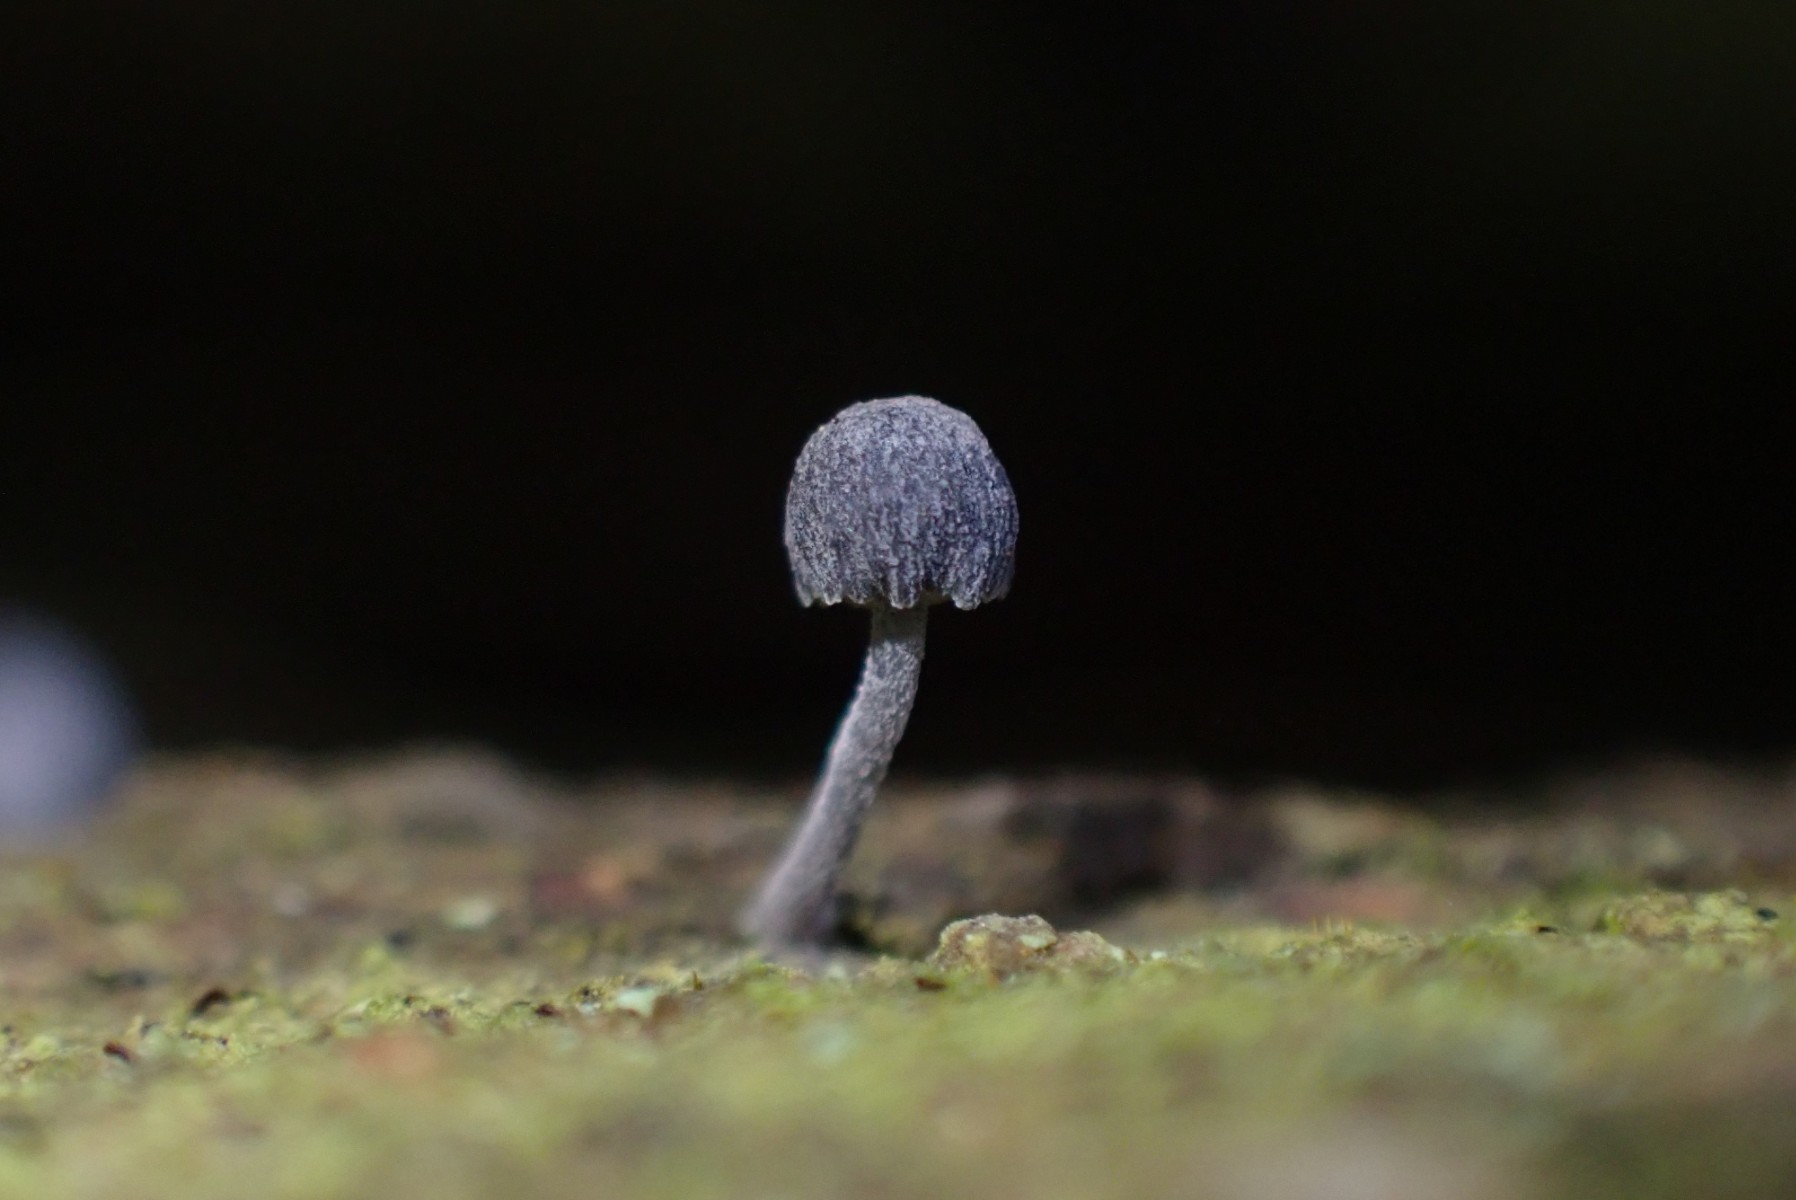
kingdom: Fungi
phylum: Basidiomycota
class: Agaricomycetes
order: Agaricales
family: Mycenaceae
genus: Mycena
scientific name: Mycena pseudocorticola
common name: gråblå bark-huesvamp
